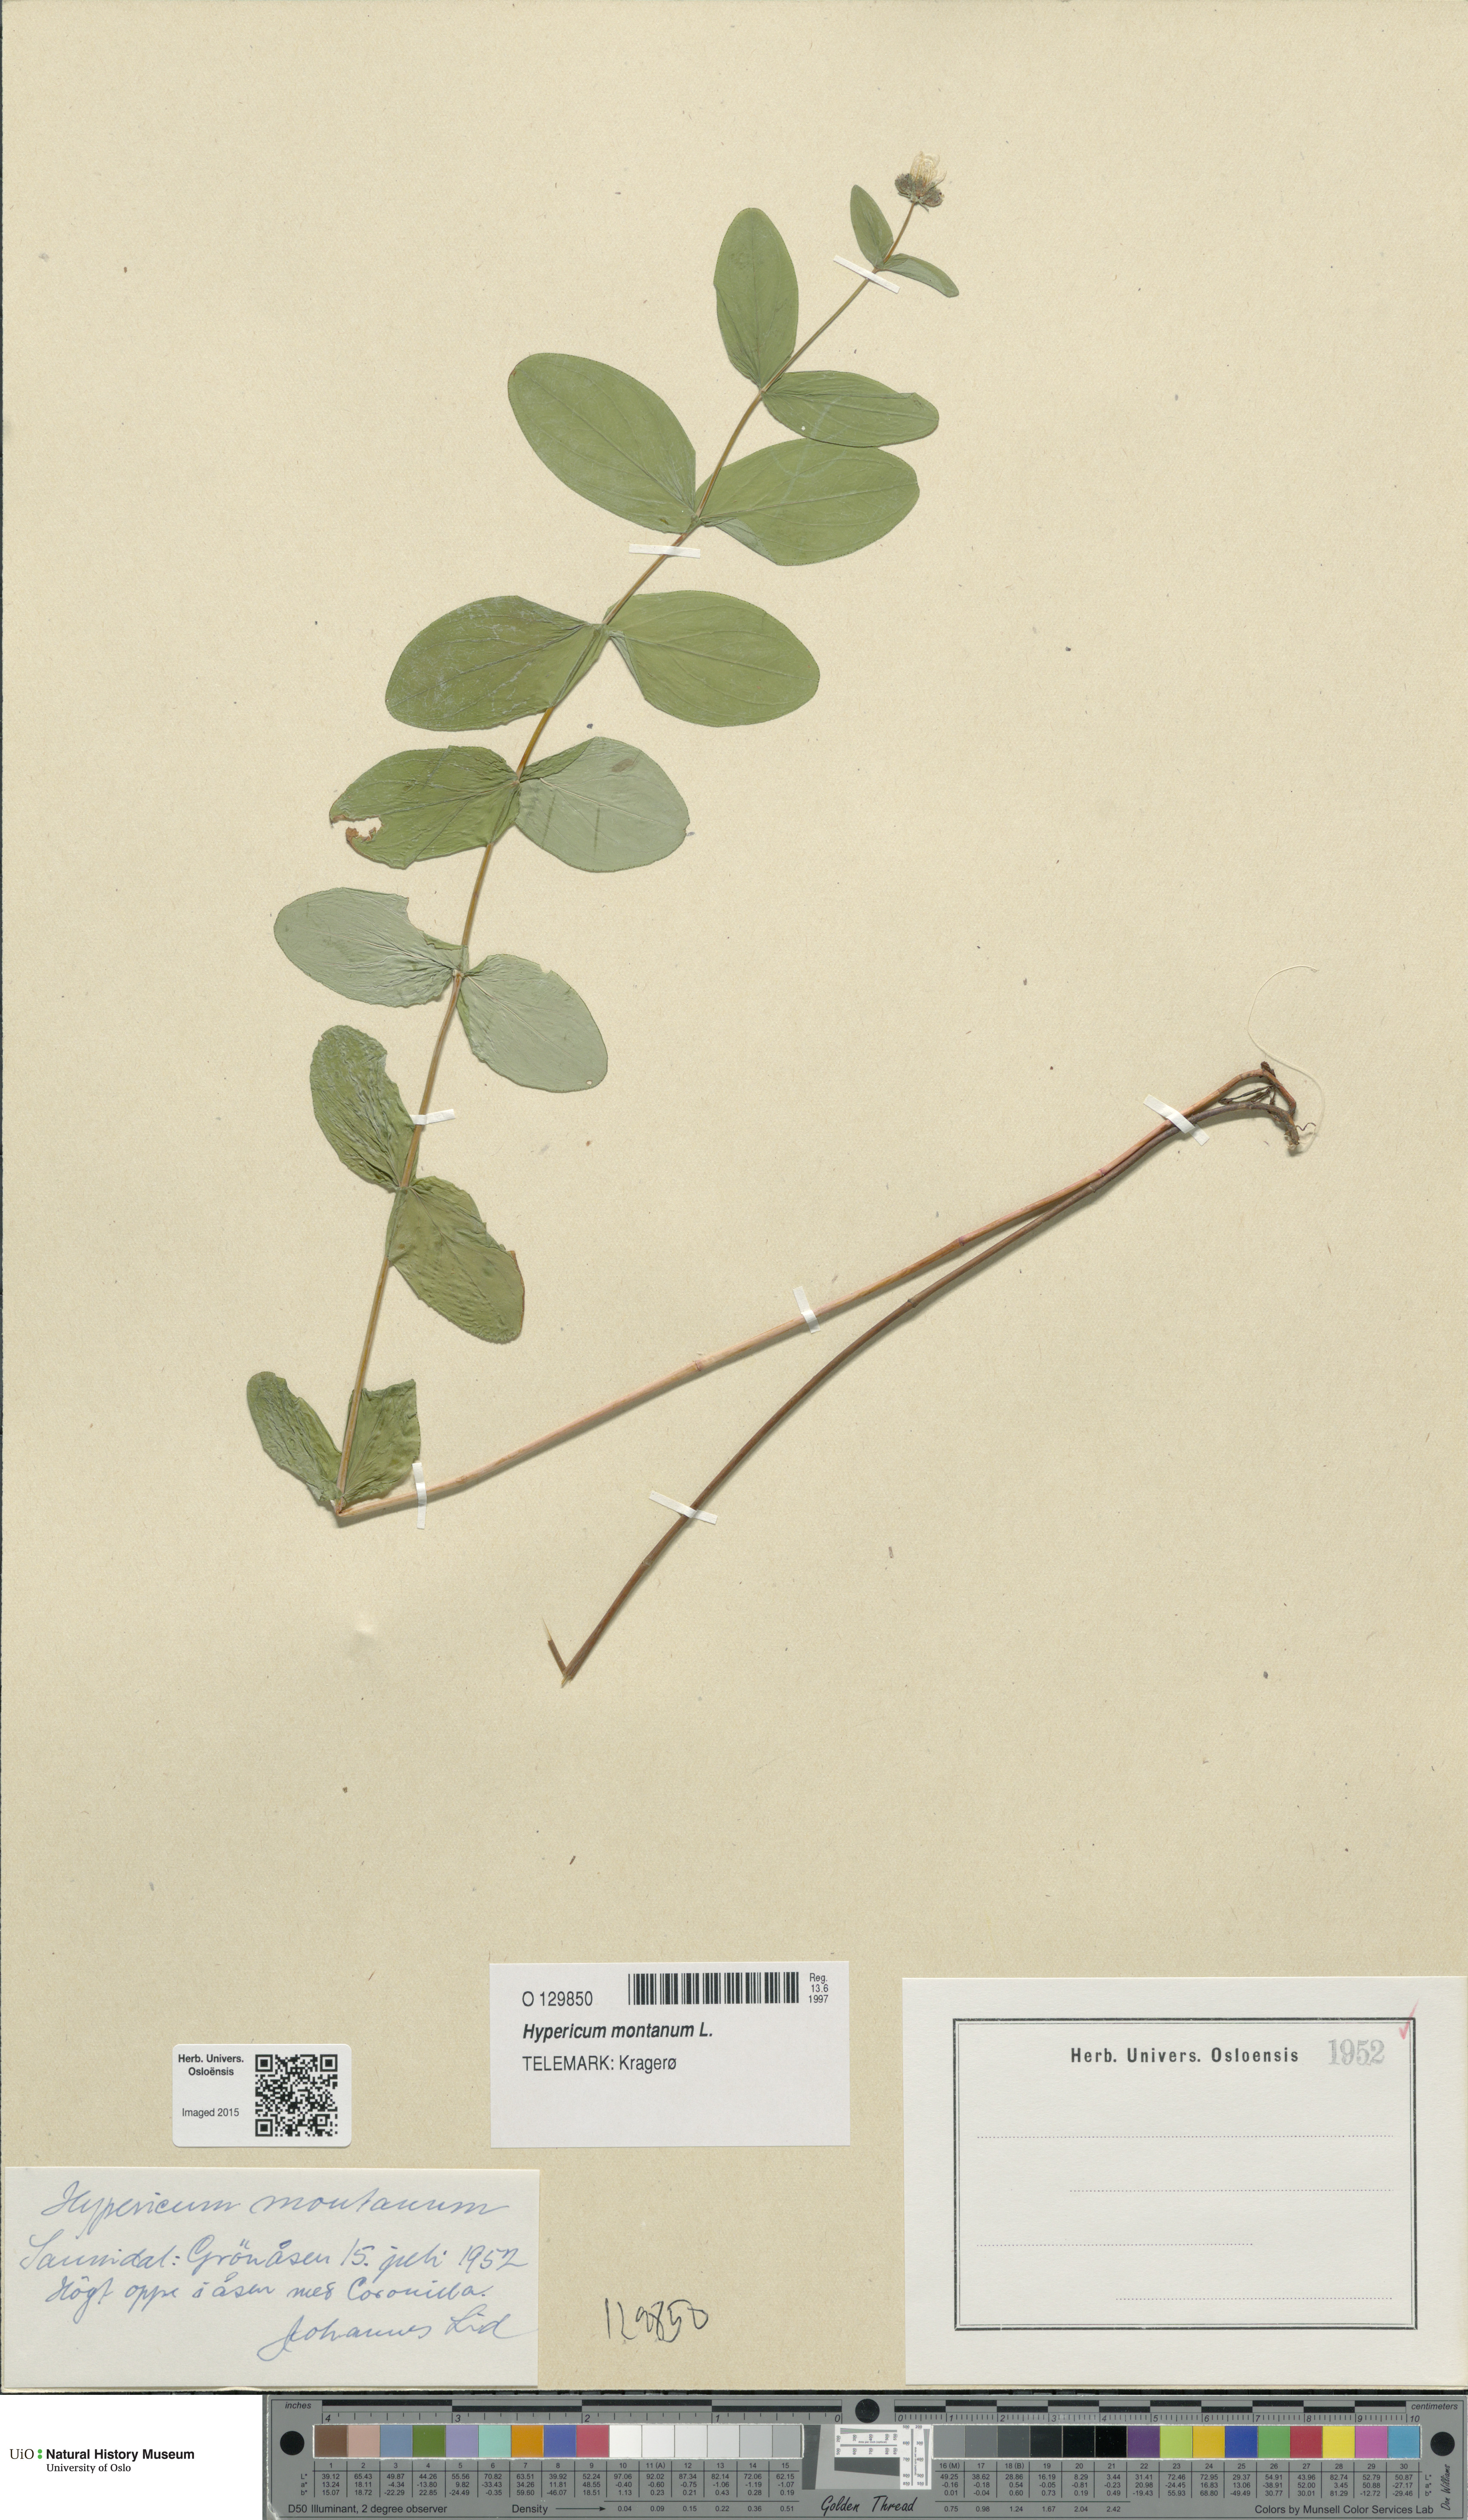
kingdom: Plantae
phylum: Tracheophyta
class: Magnoliopsida
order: Malpighiales
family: Hypericaceae
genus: Hypericum
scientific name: Hypericum montanum
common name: Pale st. john's-wort
